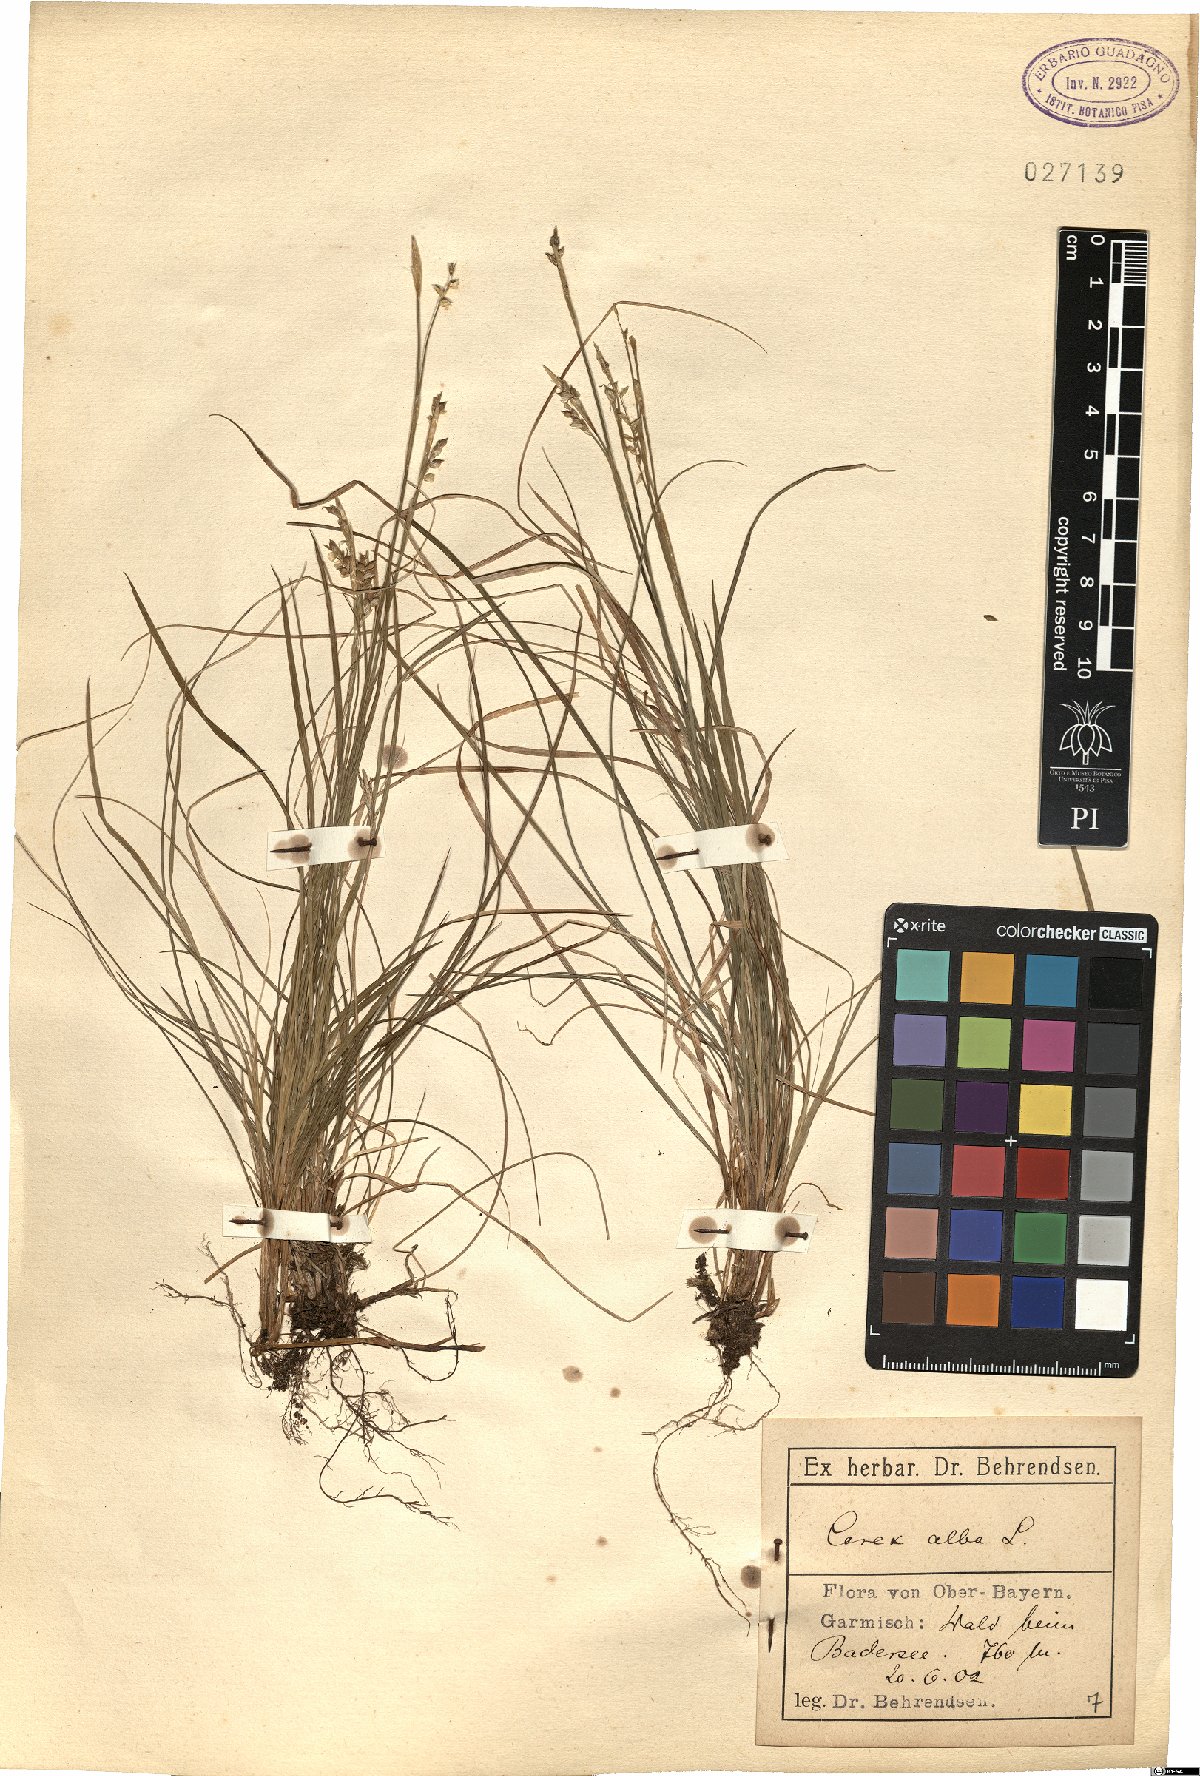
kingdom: Plantae
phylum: Tracheophyta
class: Liliopsida
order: Poales
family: Cyperaceae
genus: Carex
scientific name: Carex alba
